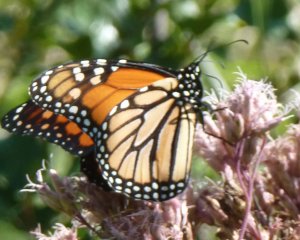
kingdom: Animalia
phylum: Arthropoda
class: Insecta
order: Lepidoptera
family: Nymphalidae
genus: Danaus
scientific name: Danaus plexippus
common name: Monarch
